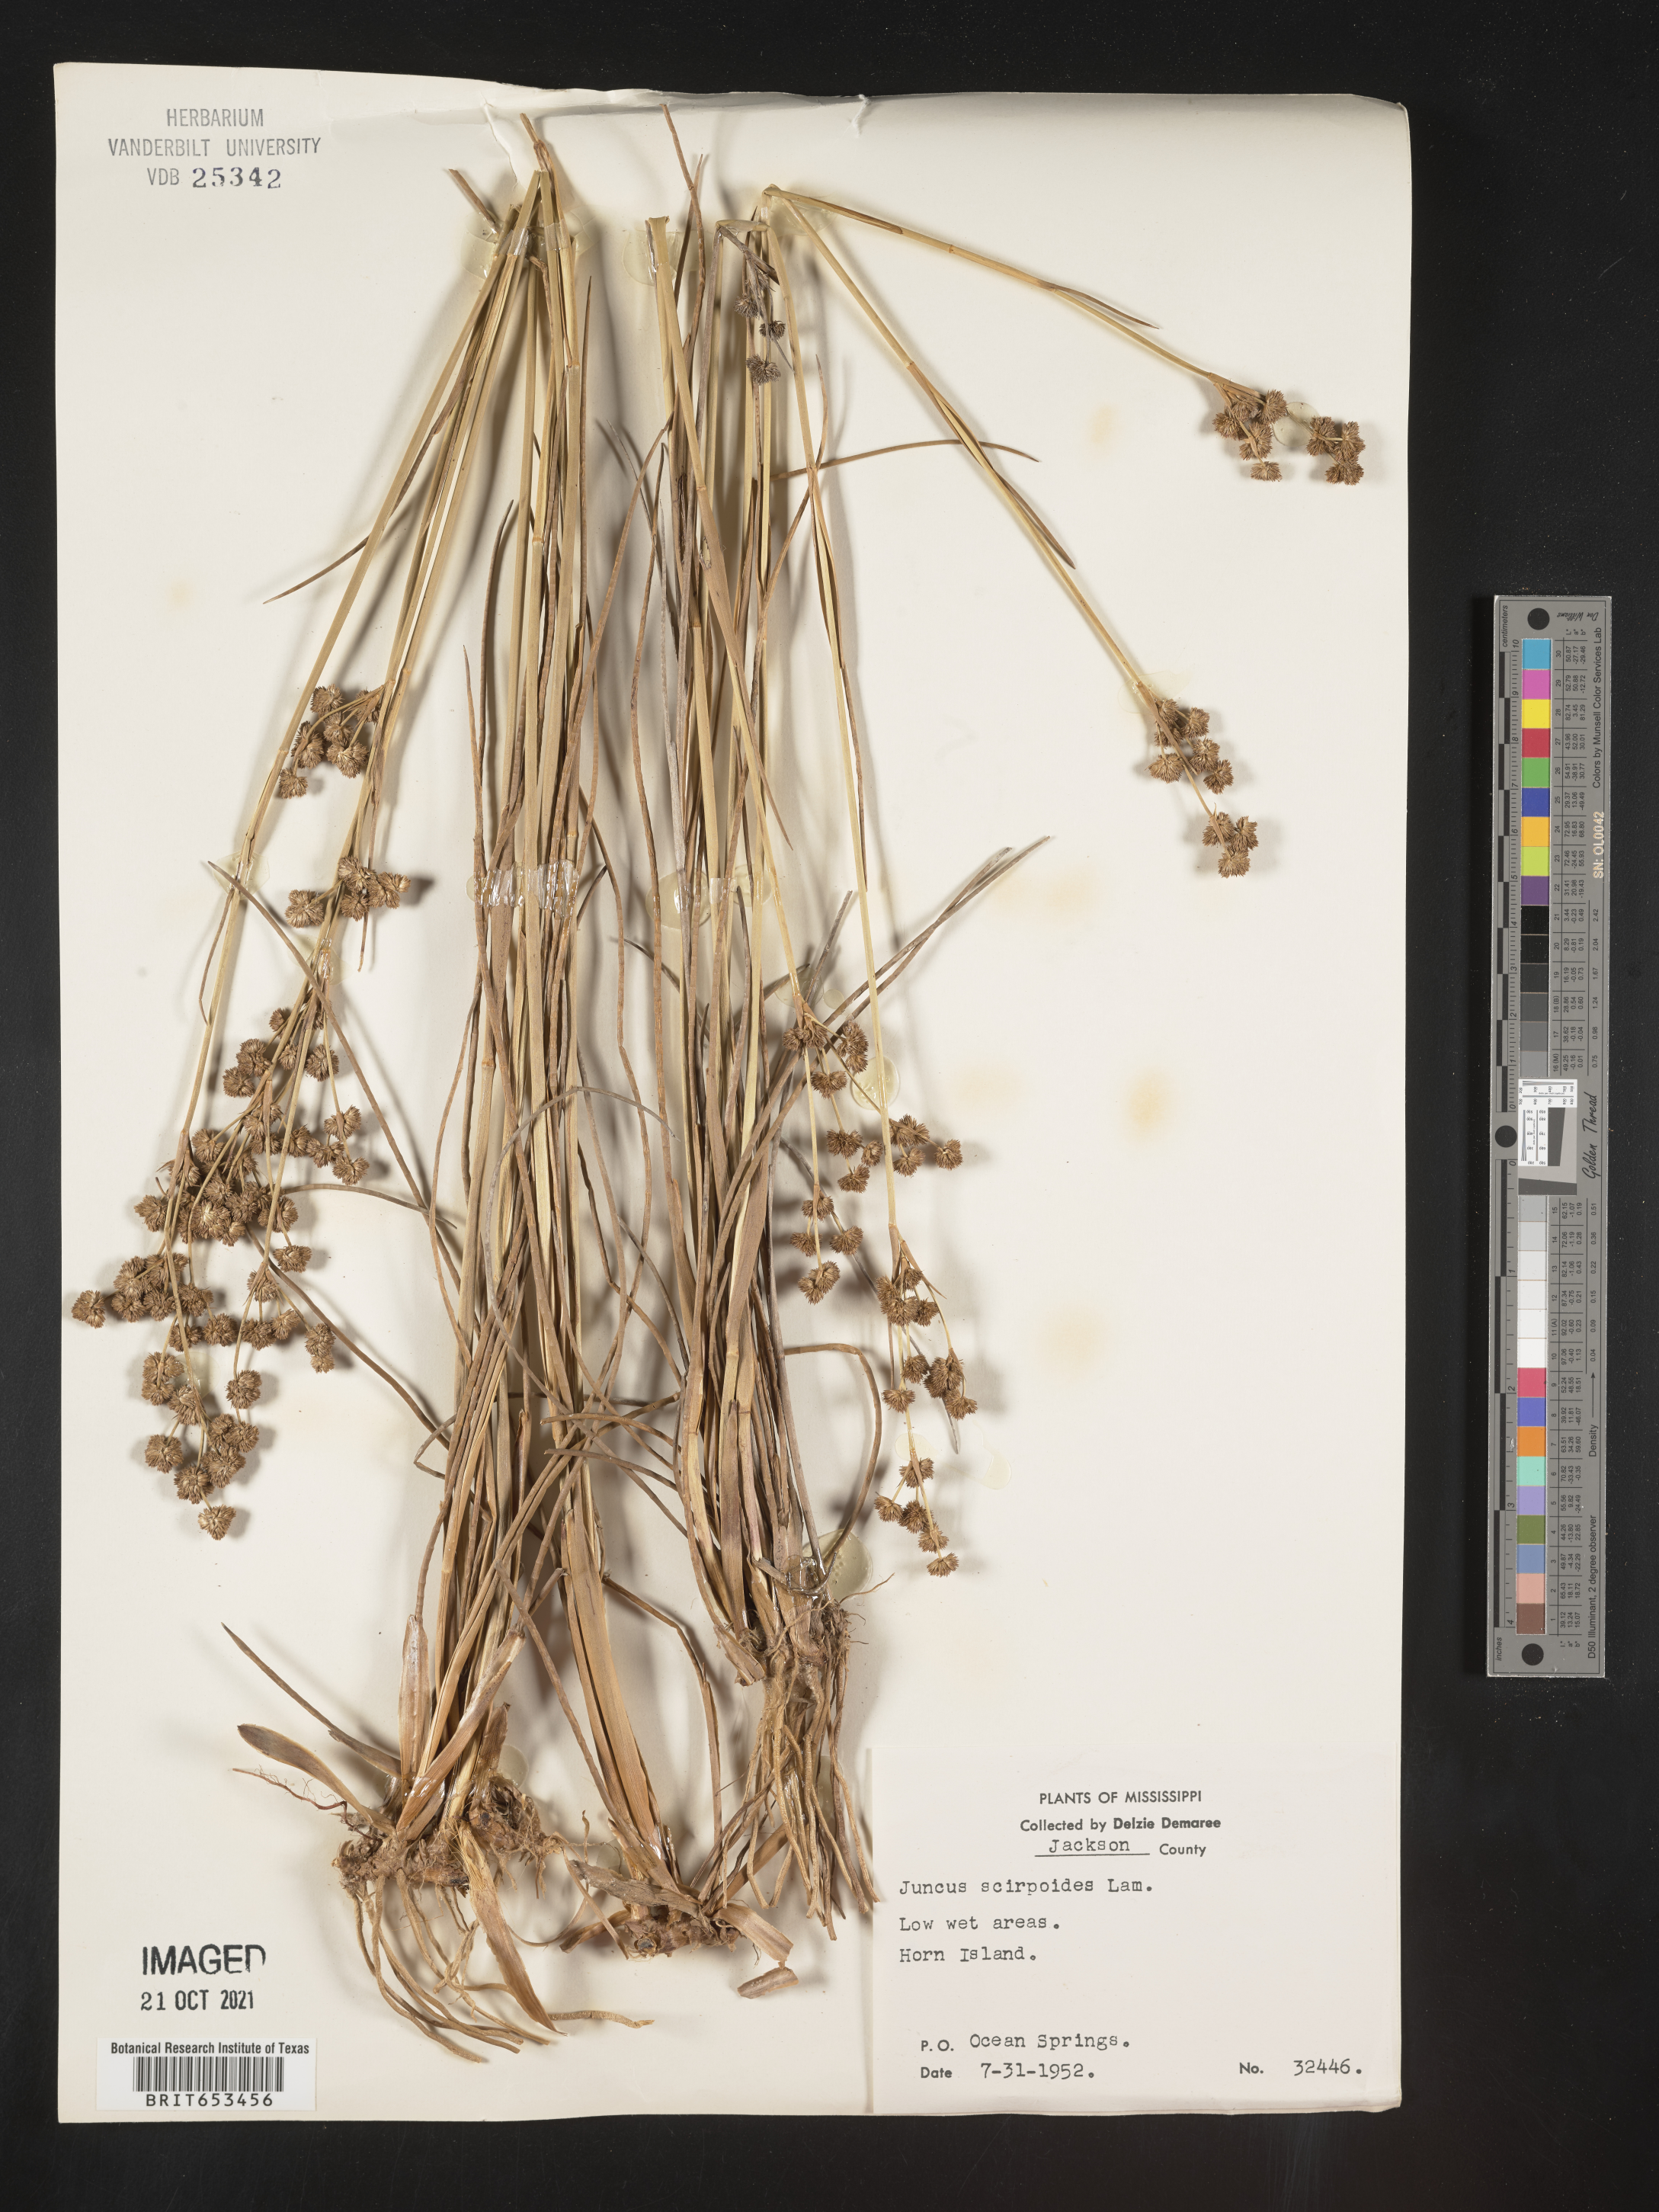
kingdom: Plantae
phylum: Tracheophyta
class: Liliopsida
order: Poales
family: Juncaceae
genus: Juncus
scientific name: Juncus scirpoides
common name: Needlepod rush
